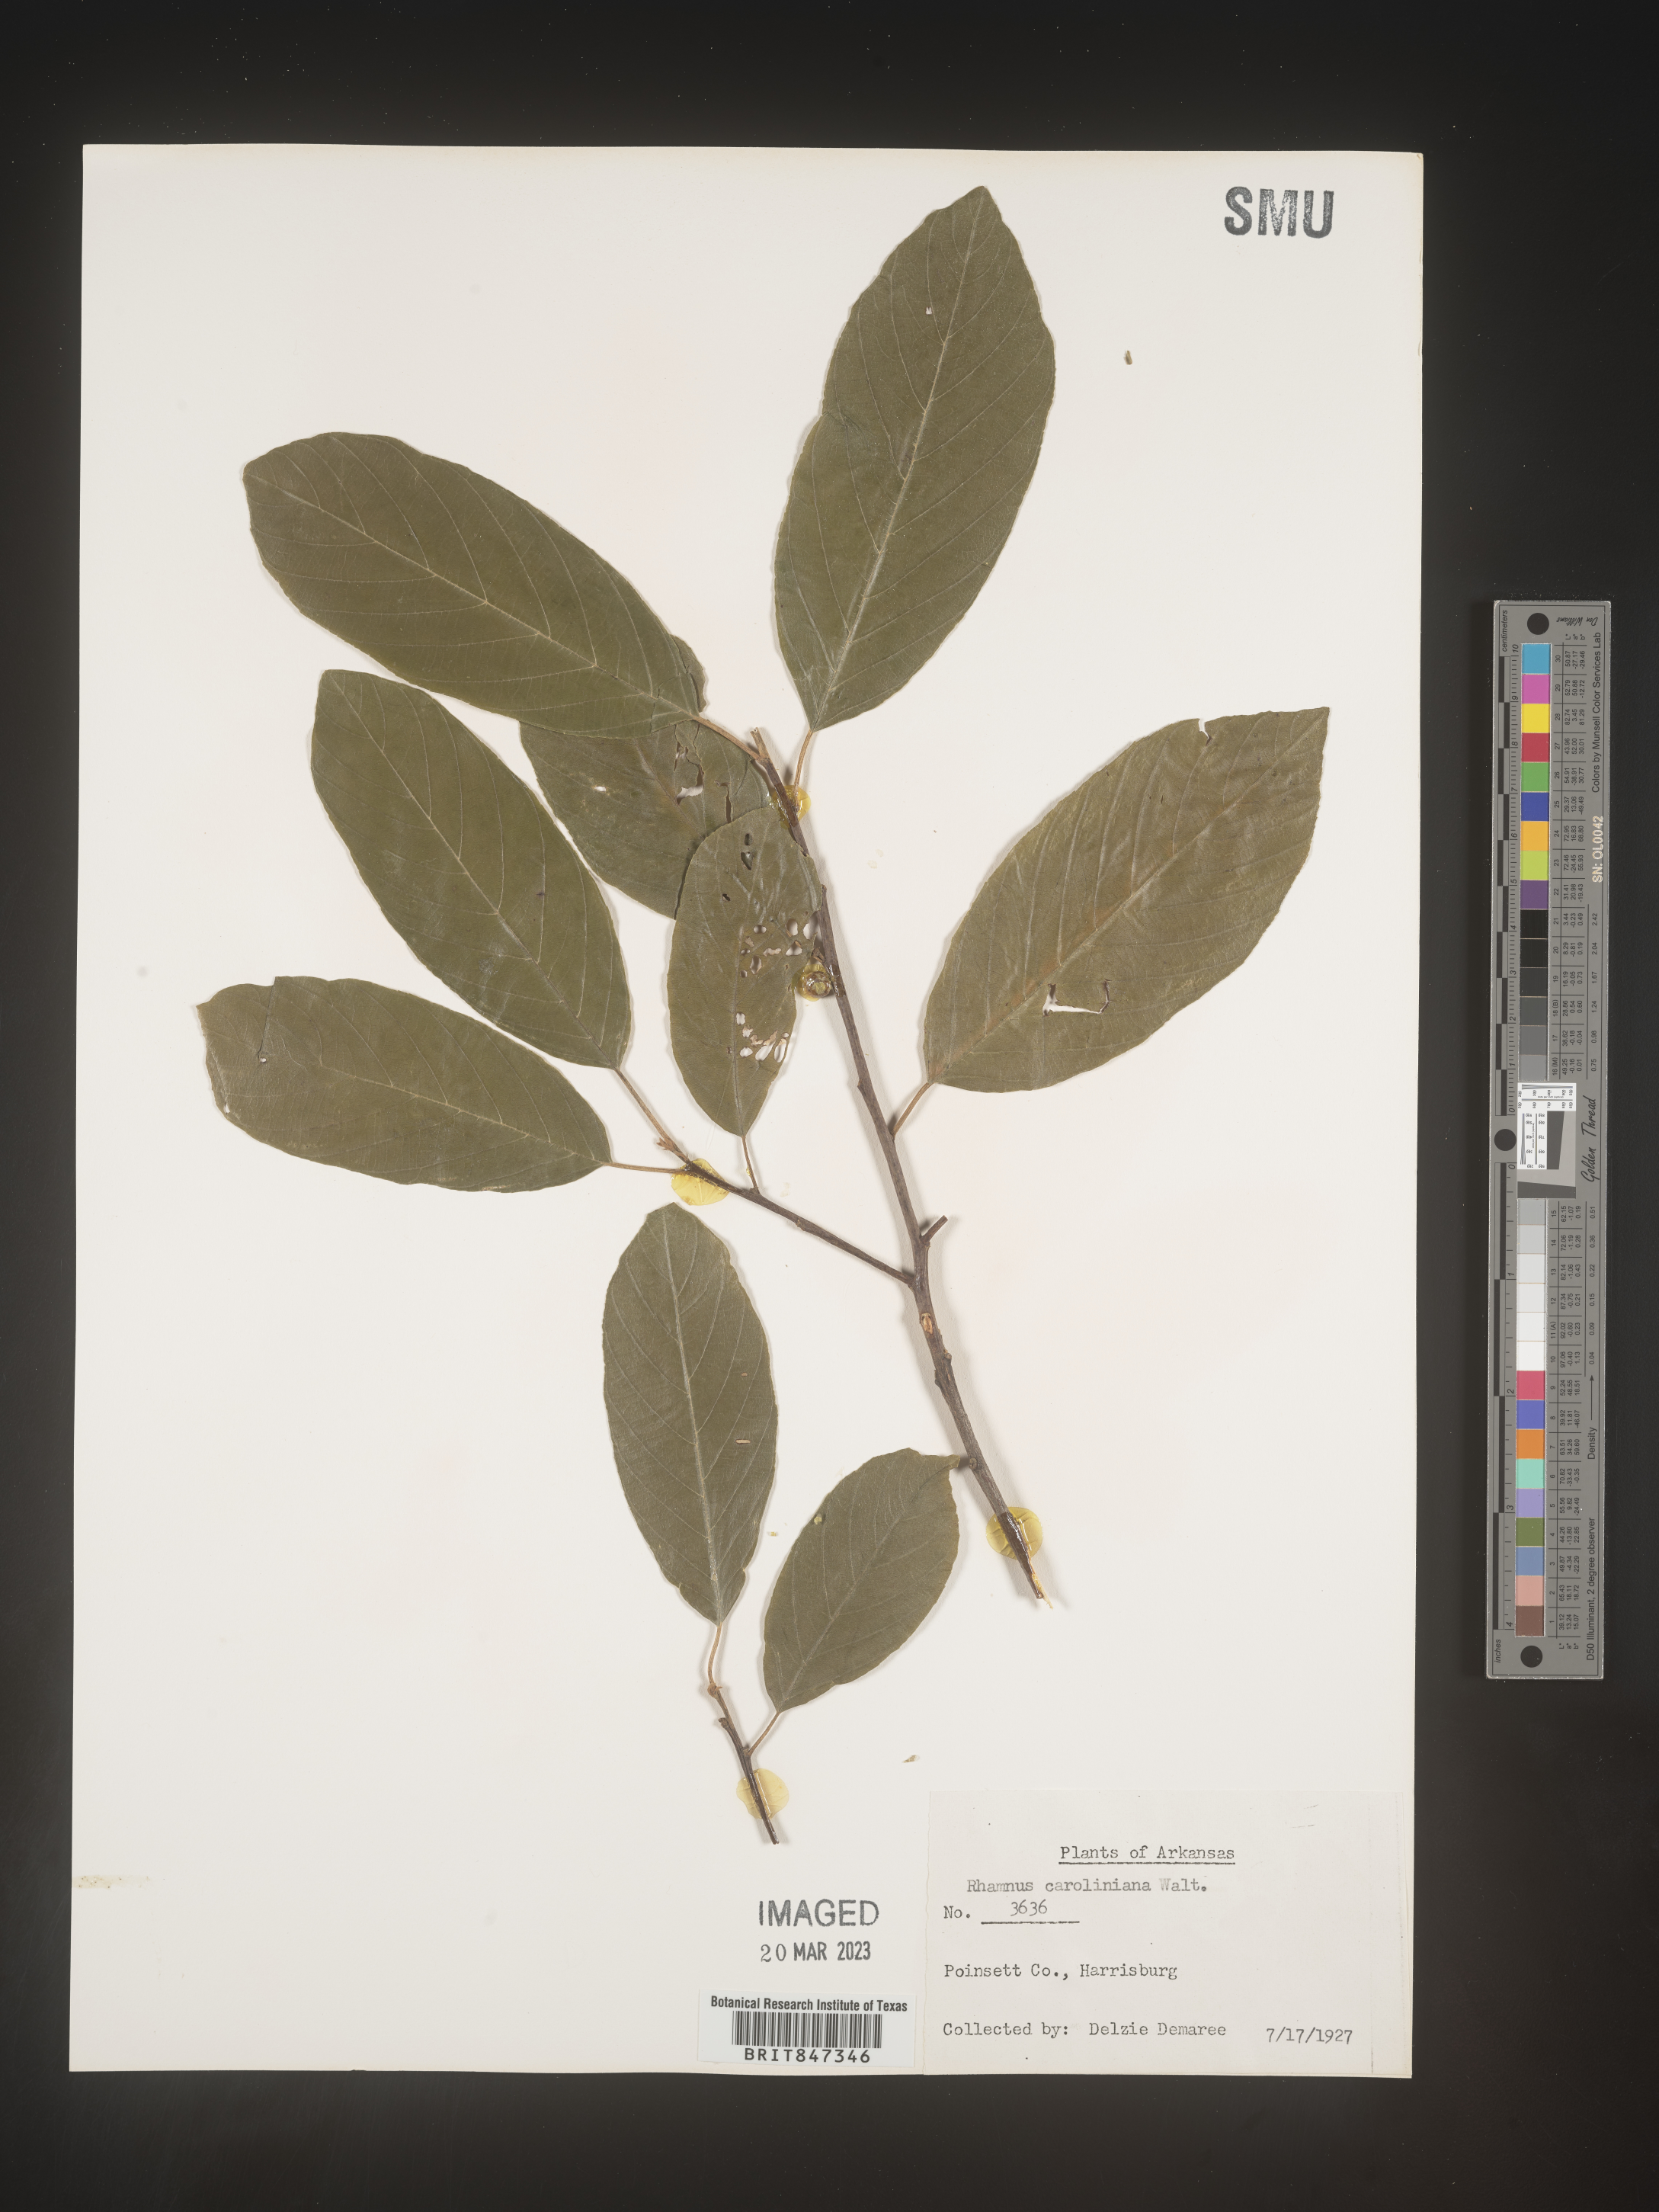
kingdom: Plantae
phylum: Tracheophyta
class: Magnoliopsida
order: Rosales
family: Rhamnaceae
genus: Frangula
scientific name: Frangula caroliniana
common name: Carolina buckthorn
